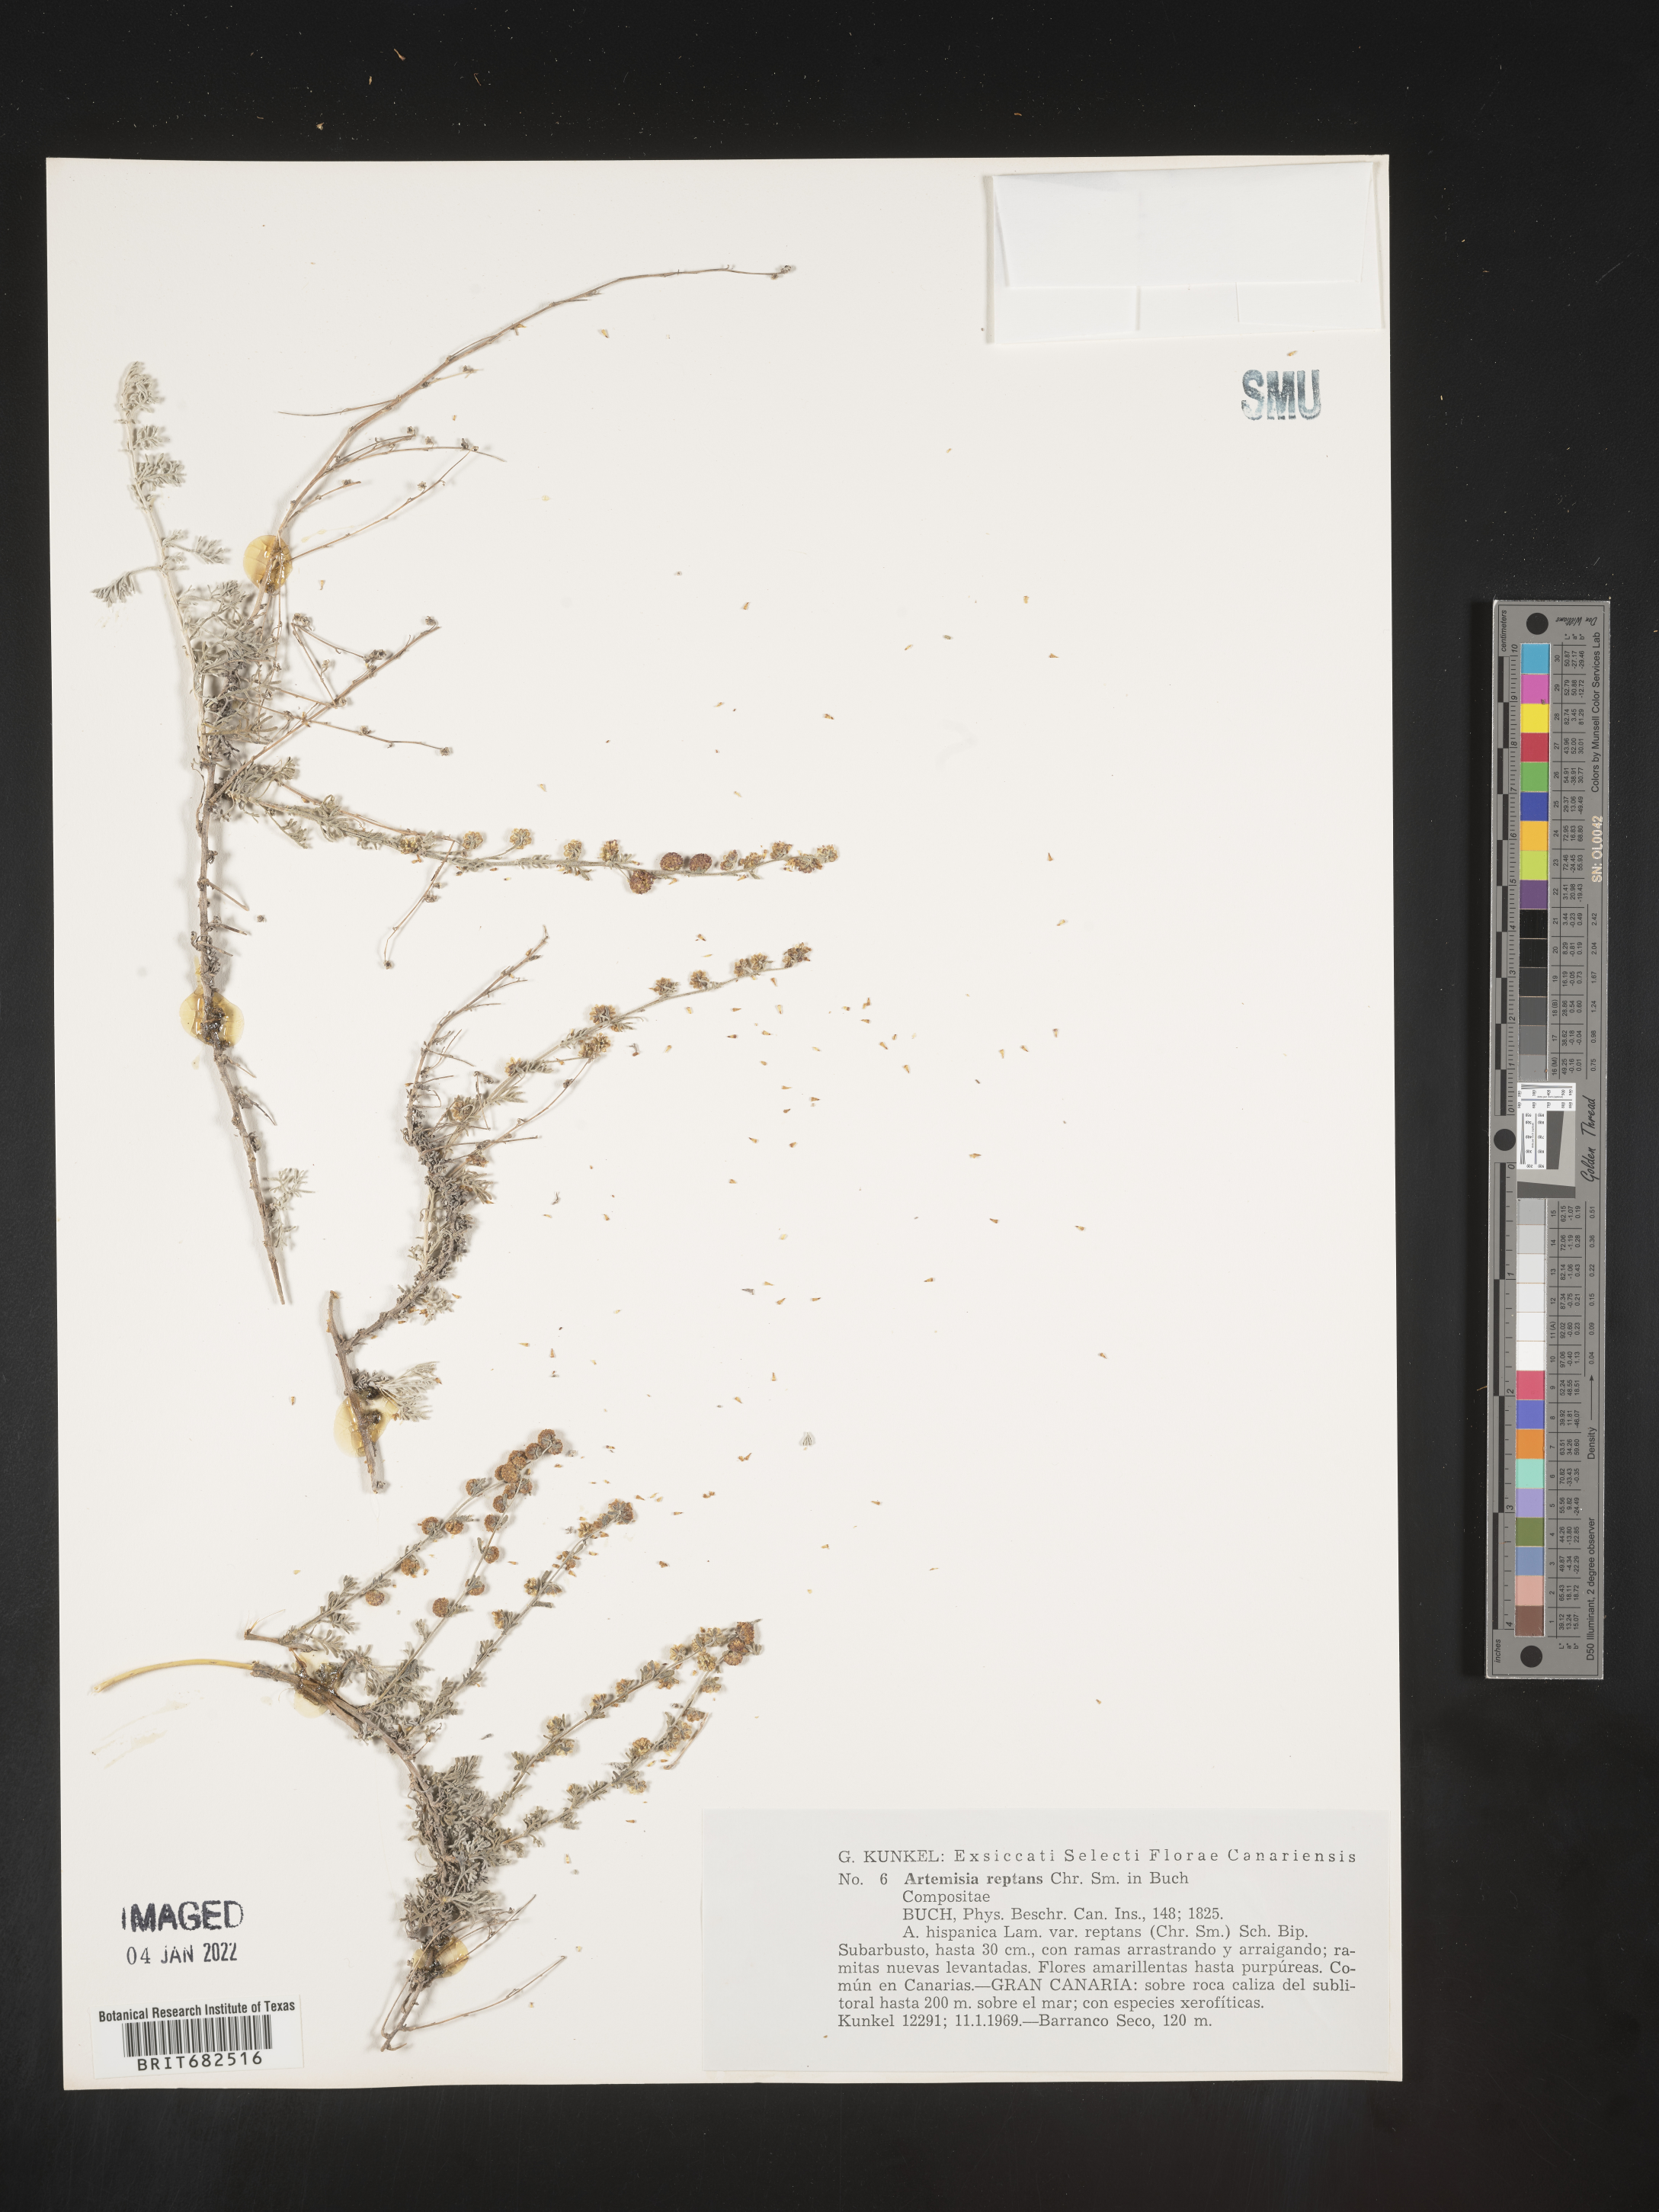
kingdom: Plantae
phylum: Tracheophyta
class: Magnoliopsida
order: Asterales
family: Asteraceae
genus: Artemisia
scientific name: Artemisia
